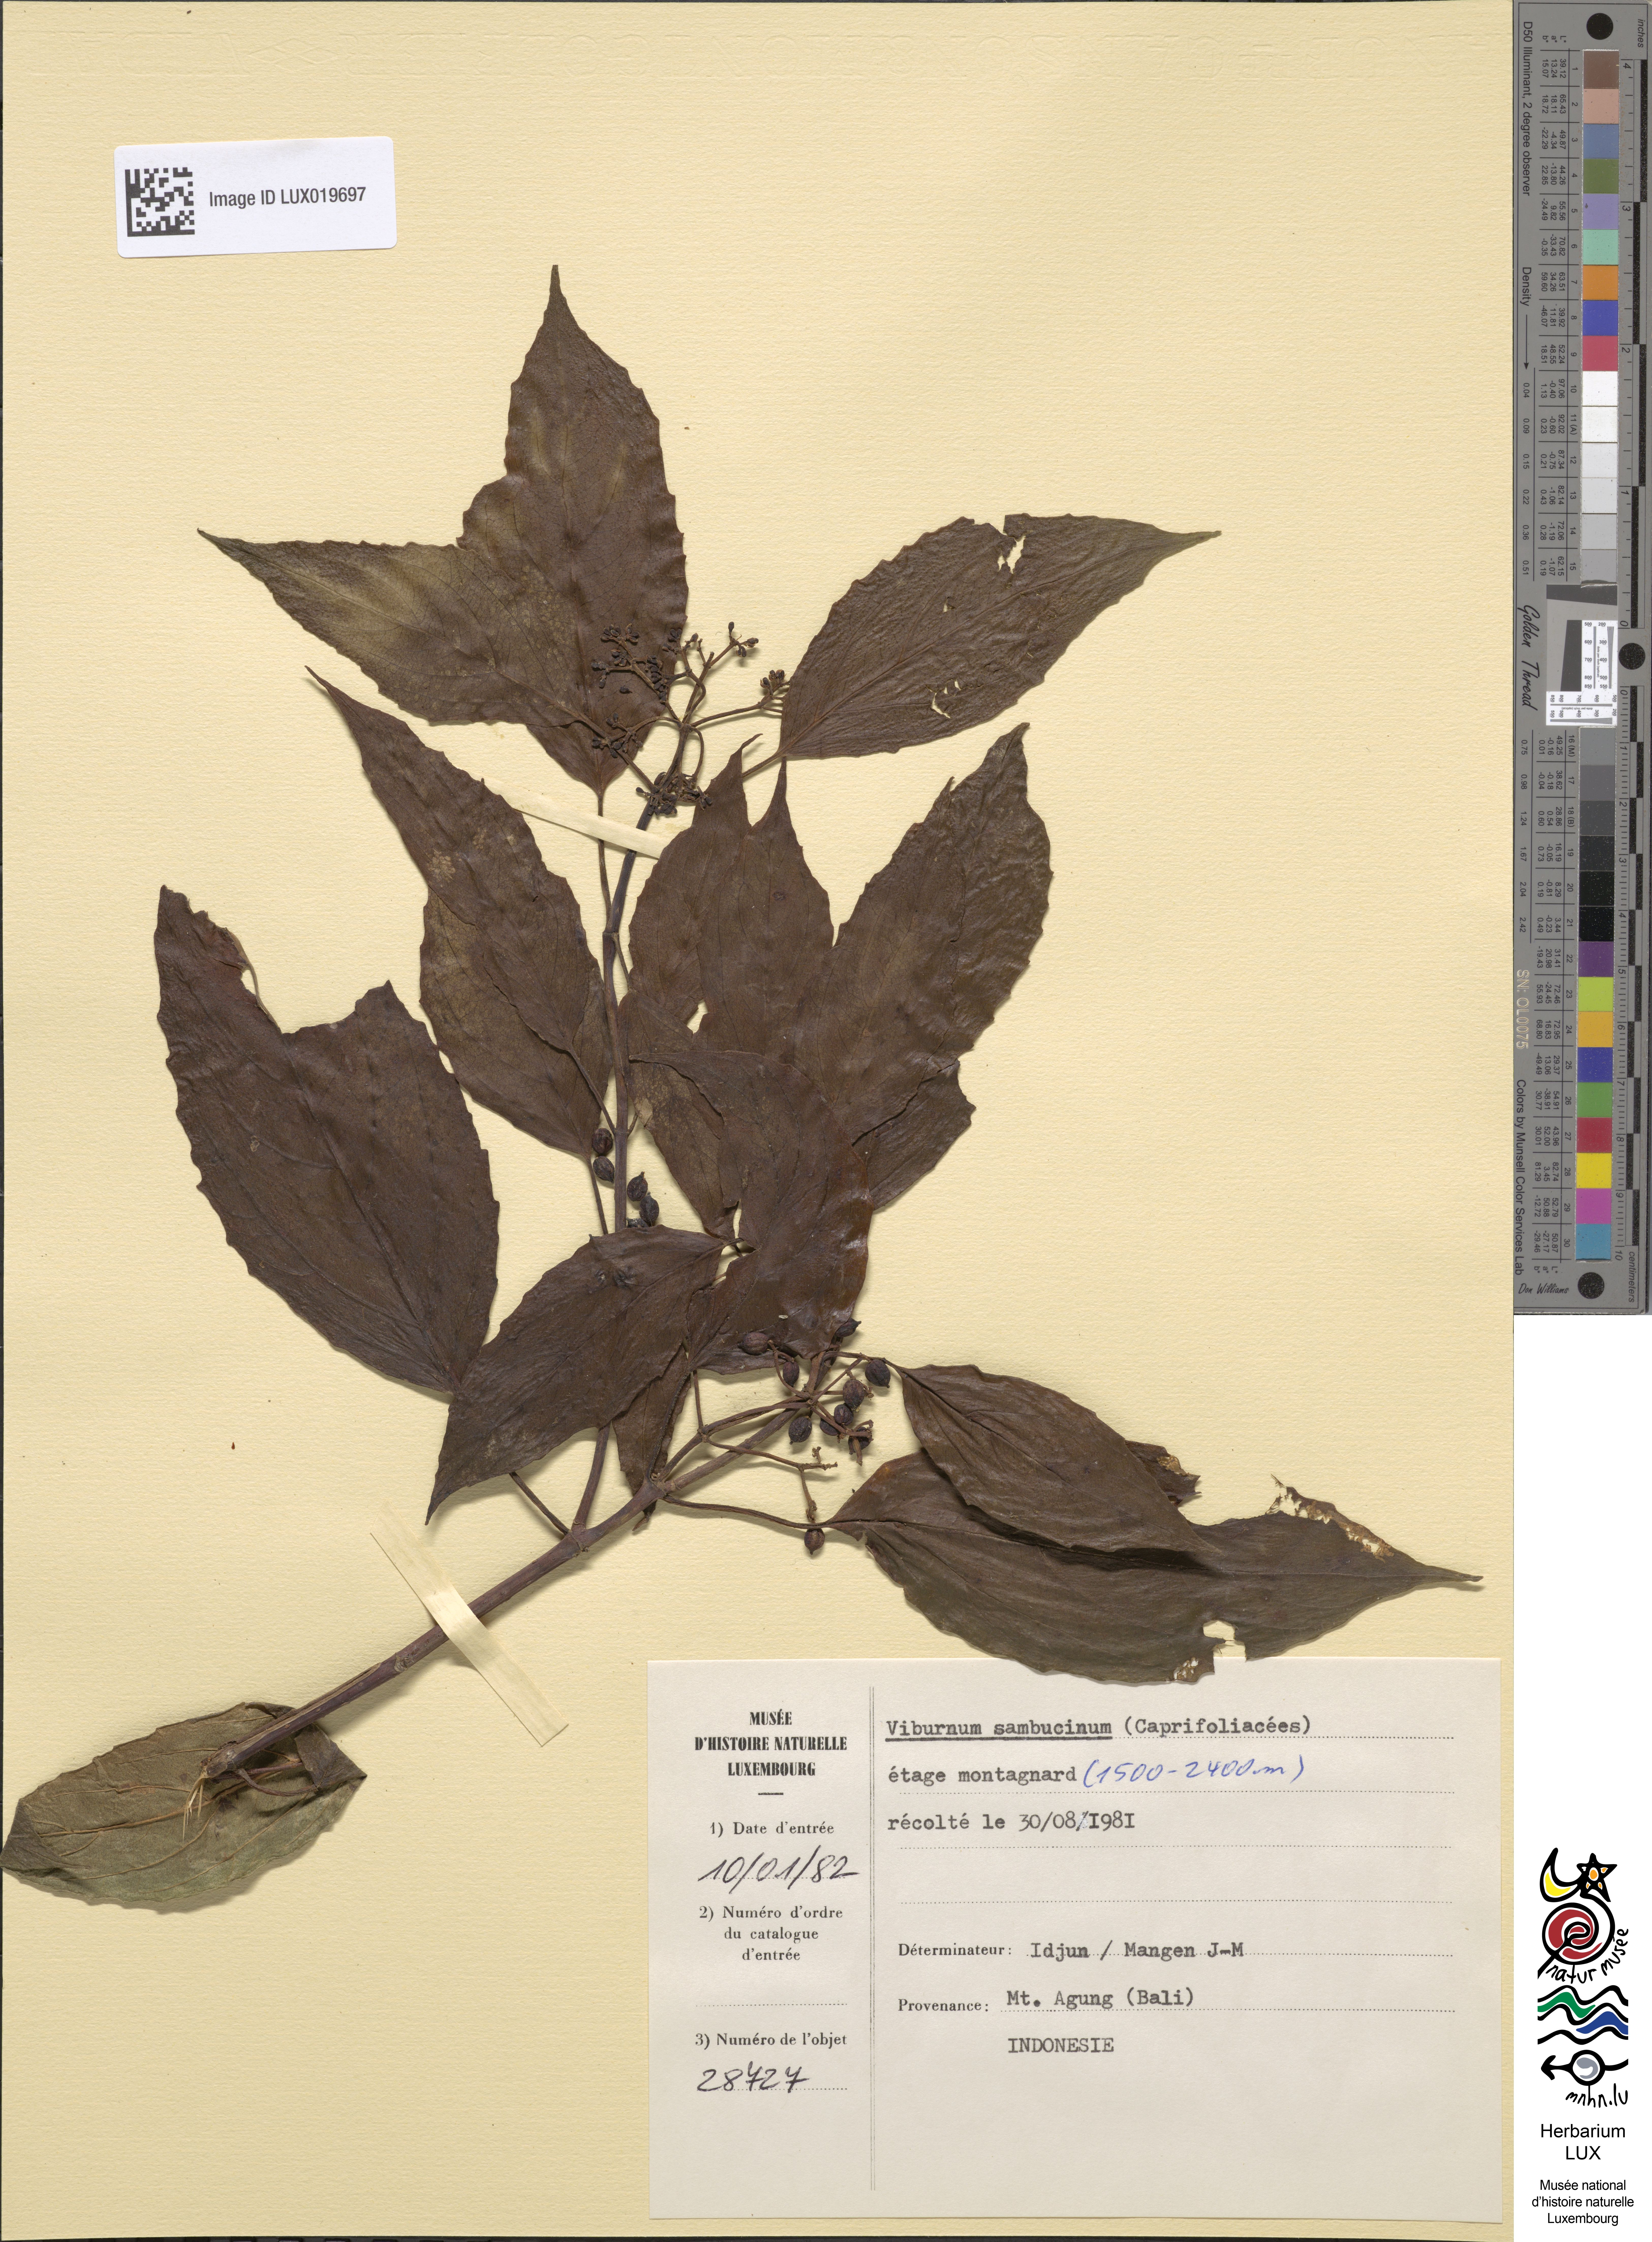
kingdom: Plantae
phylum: Tracheophyta
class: Magnoliopsida
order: Dipsacales
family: Viburnaceae
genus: Viburnum
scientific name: Viburnum sambucinum
